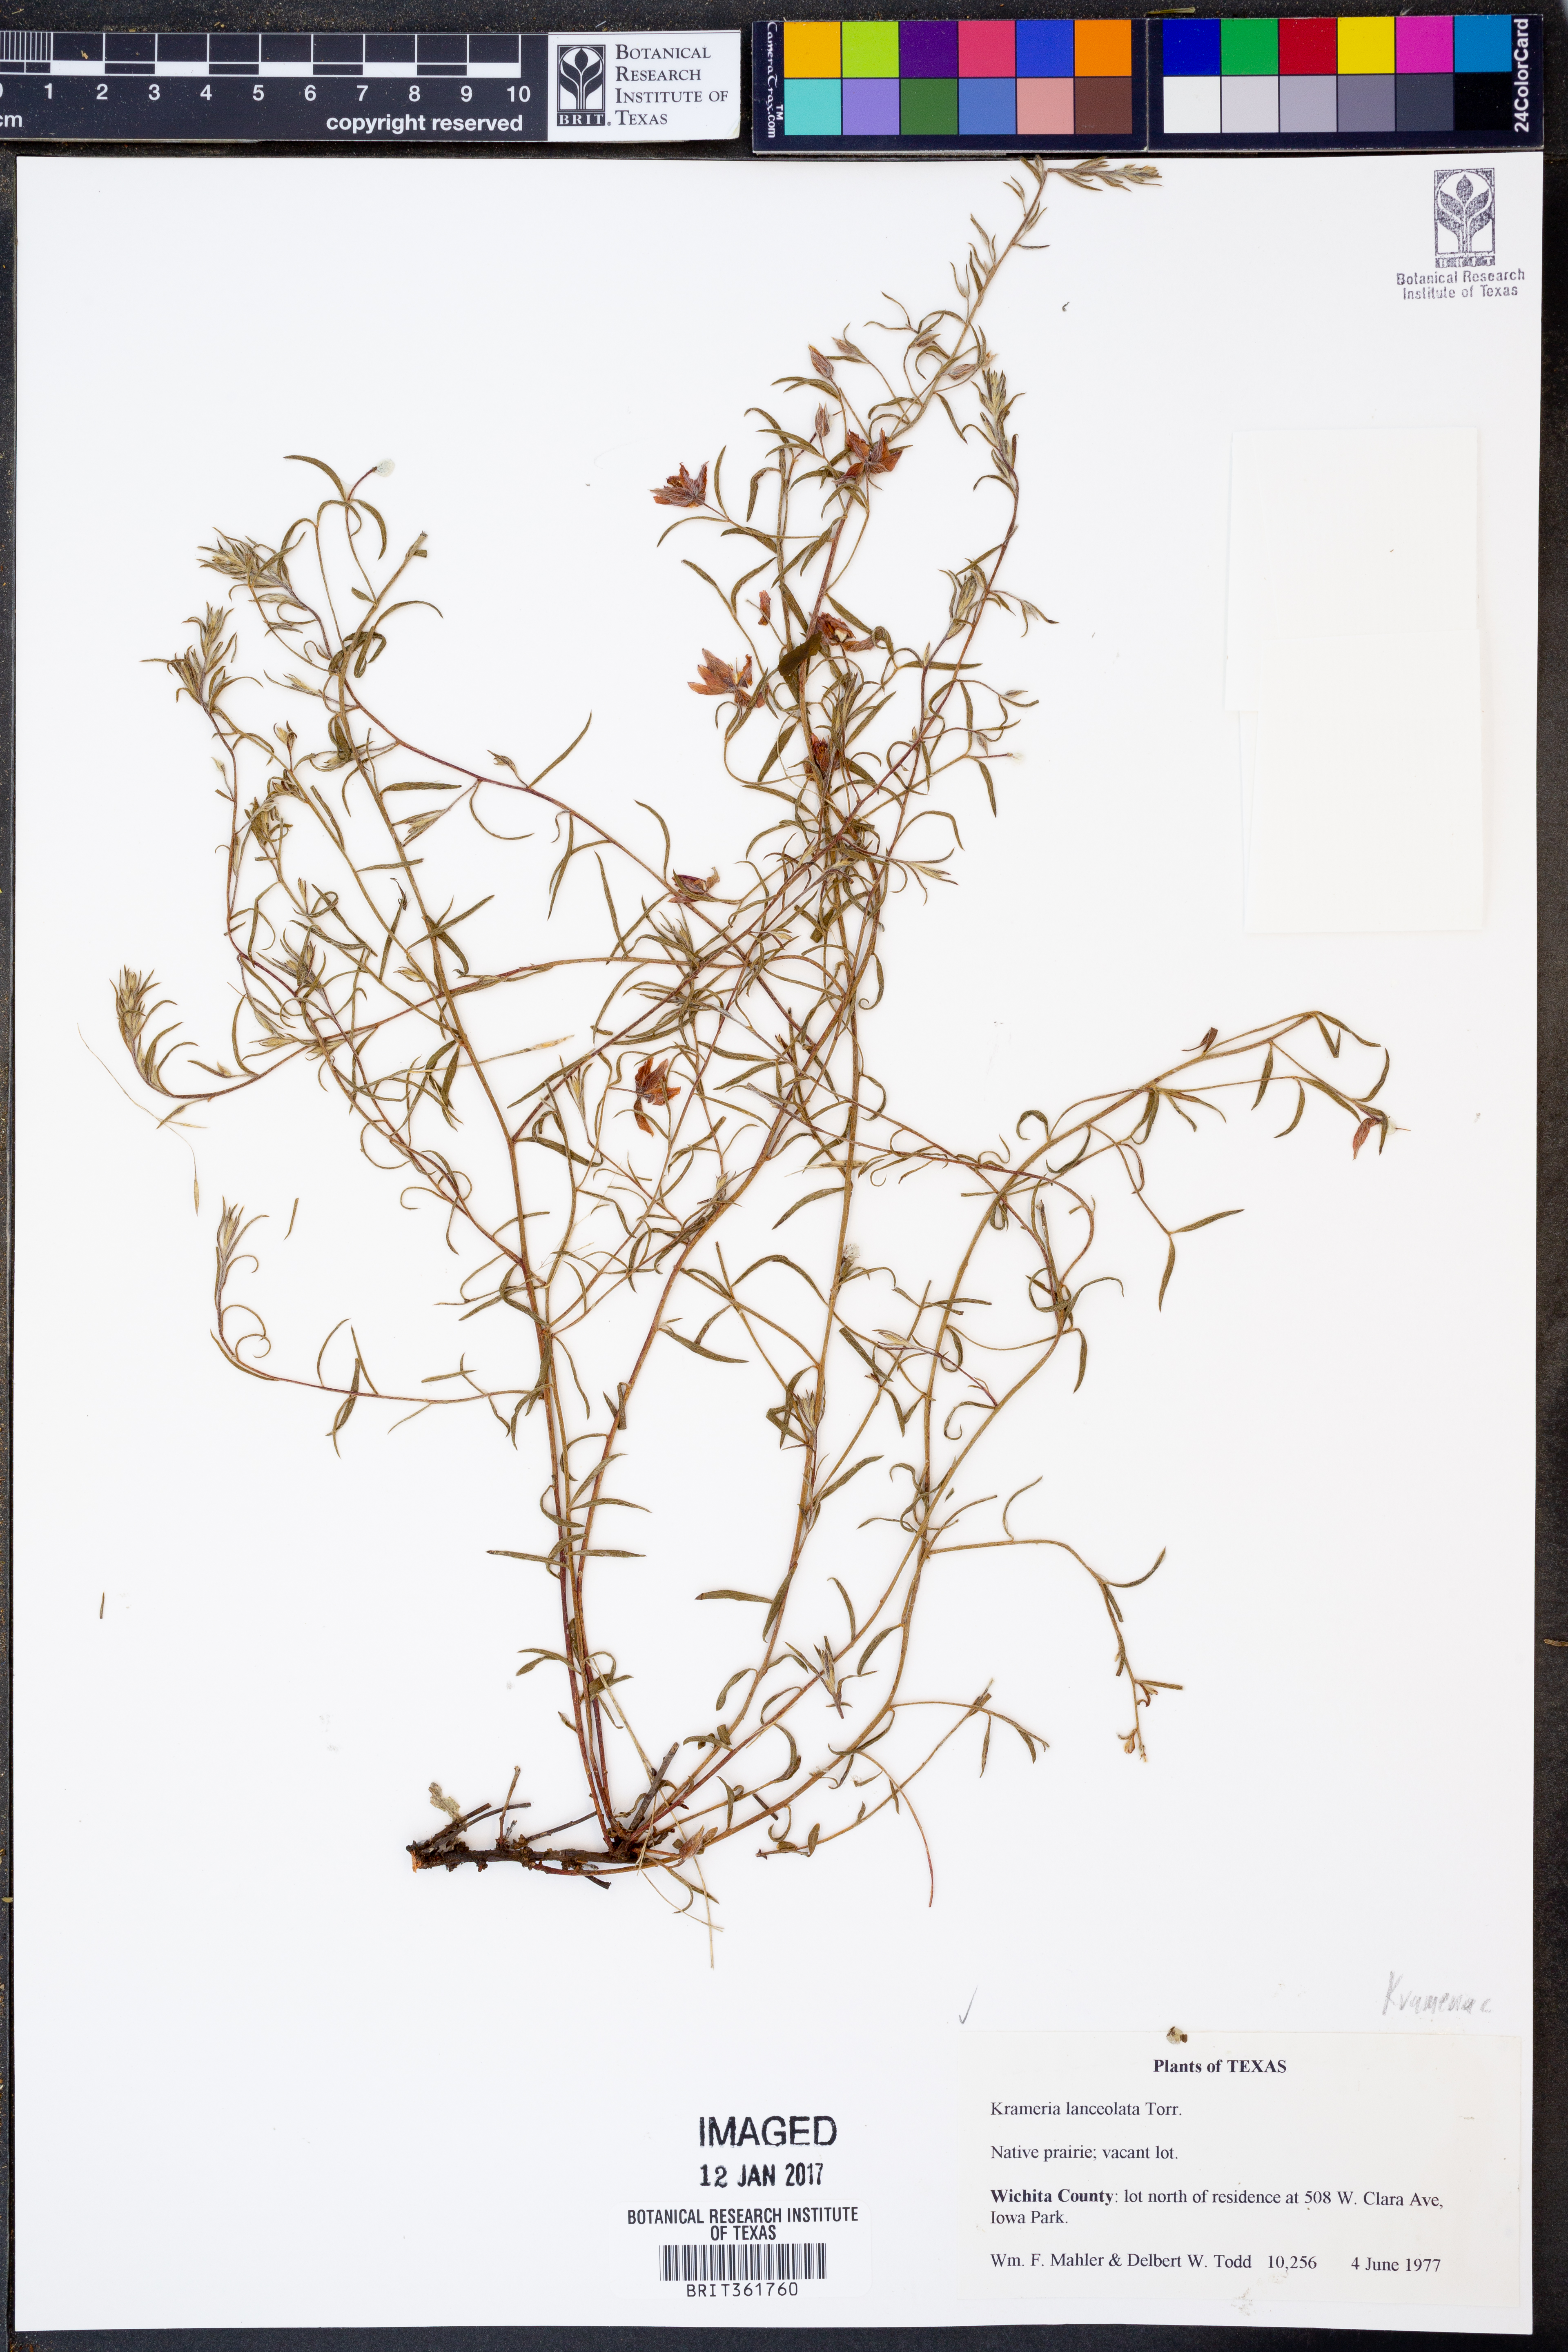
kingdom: Plantae
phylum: Tracheophyta
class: Magnoliopsida
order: Zygophyllales
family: Krameriaceae
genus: Krameria
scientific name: Krameria lanceolata
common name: Ratany
